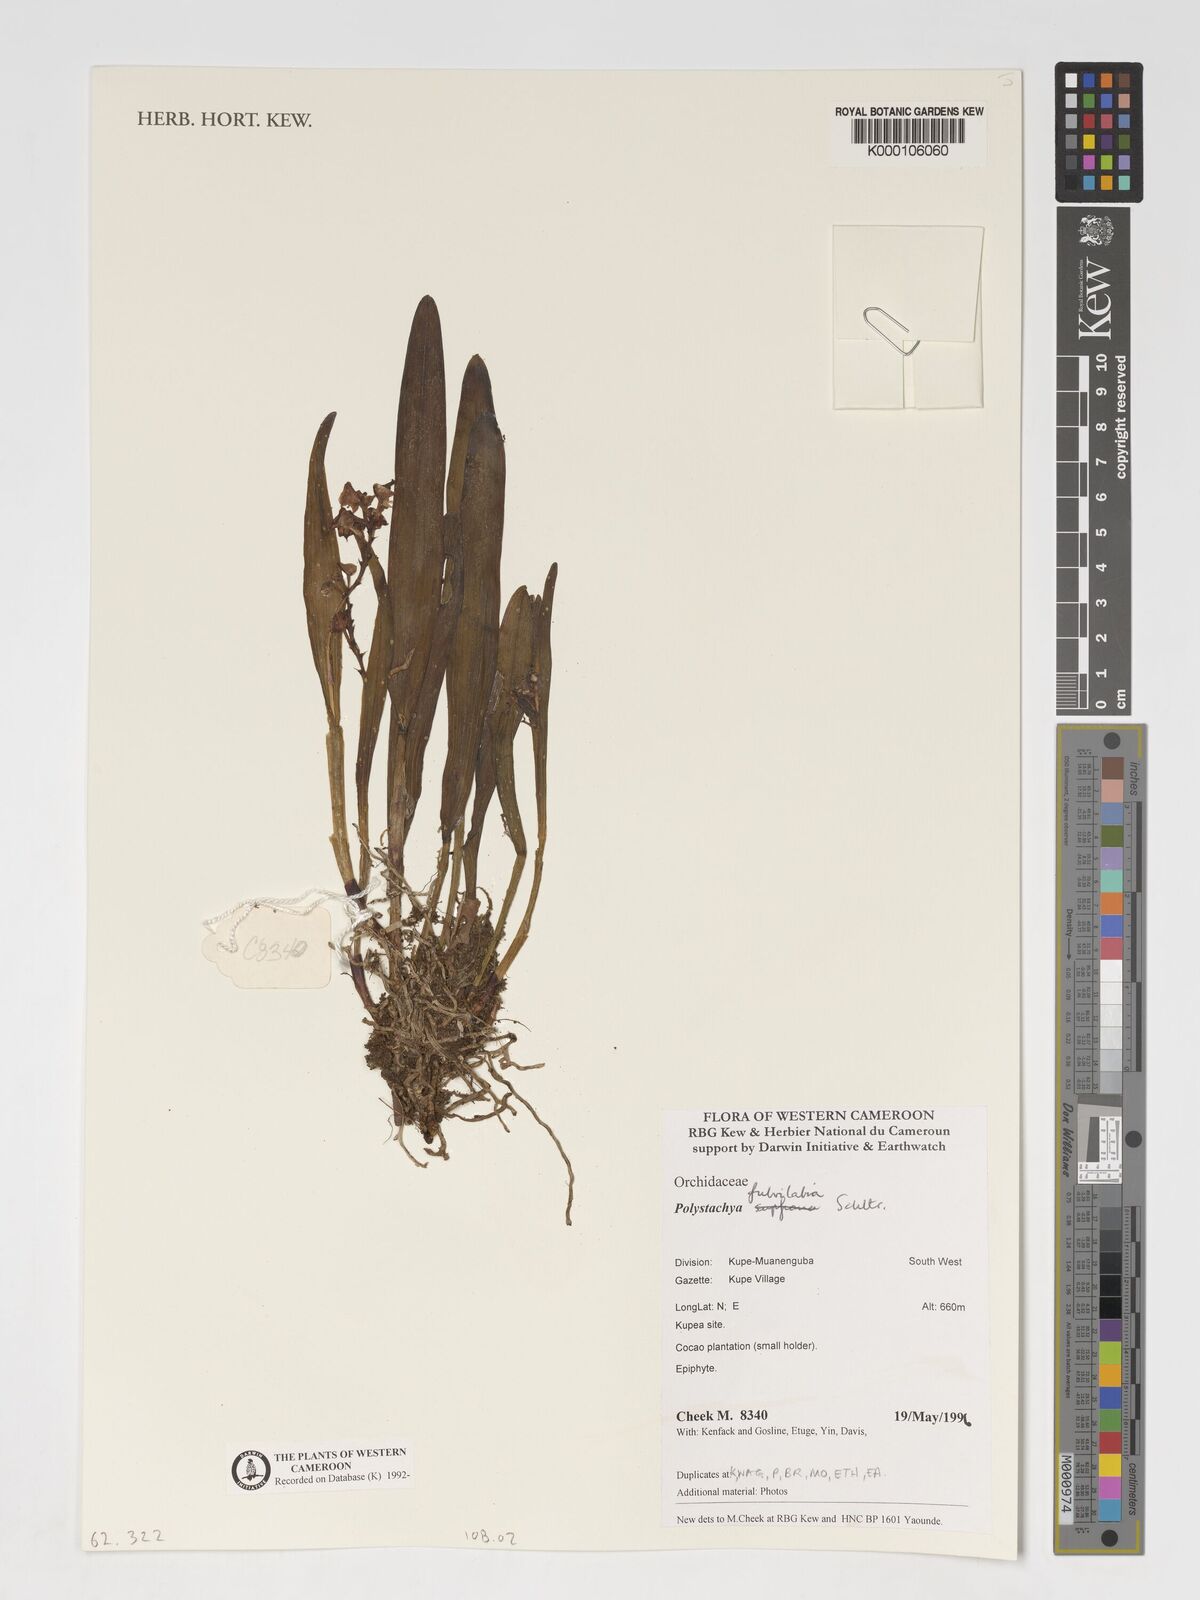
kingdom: Plantae
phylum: Tracheophyta
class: Liliopsida
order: Asparagales
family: Orchidaceae
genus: Polystachya
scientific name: Polystachya fulvilabia
